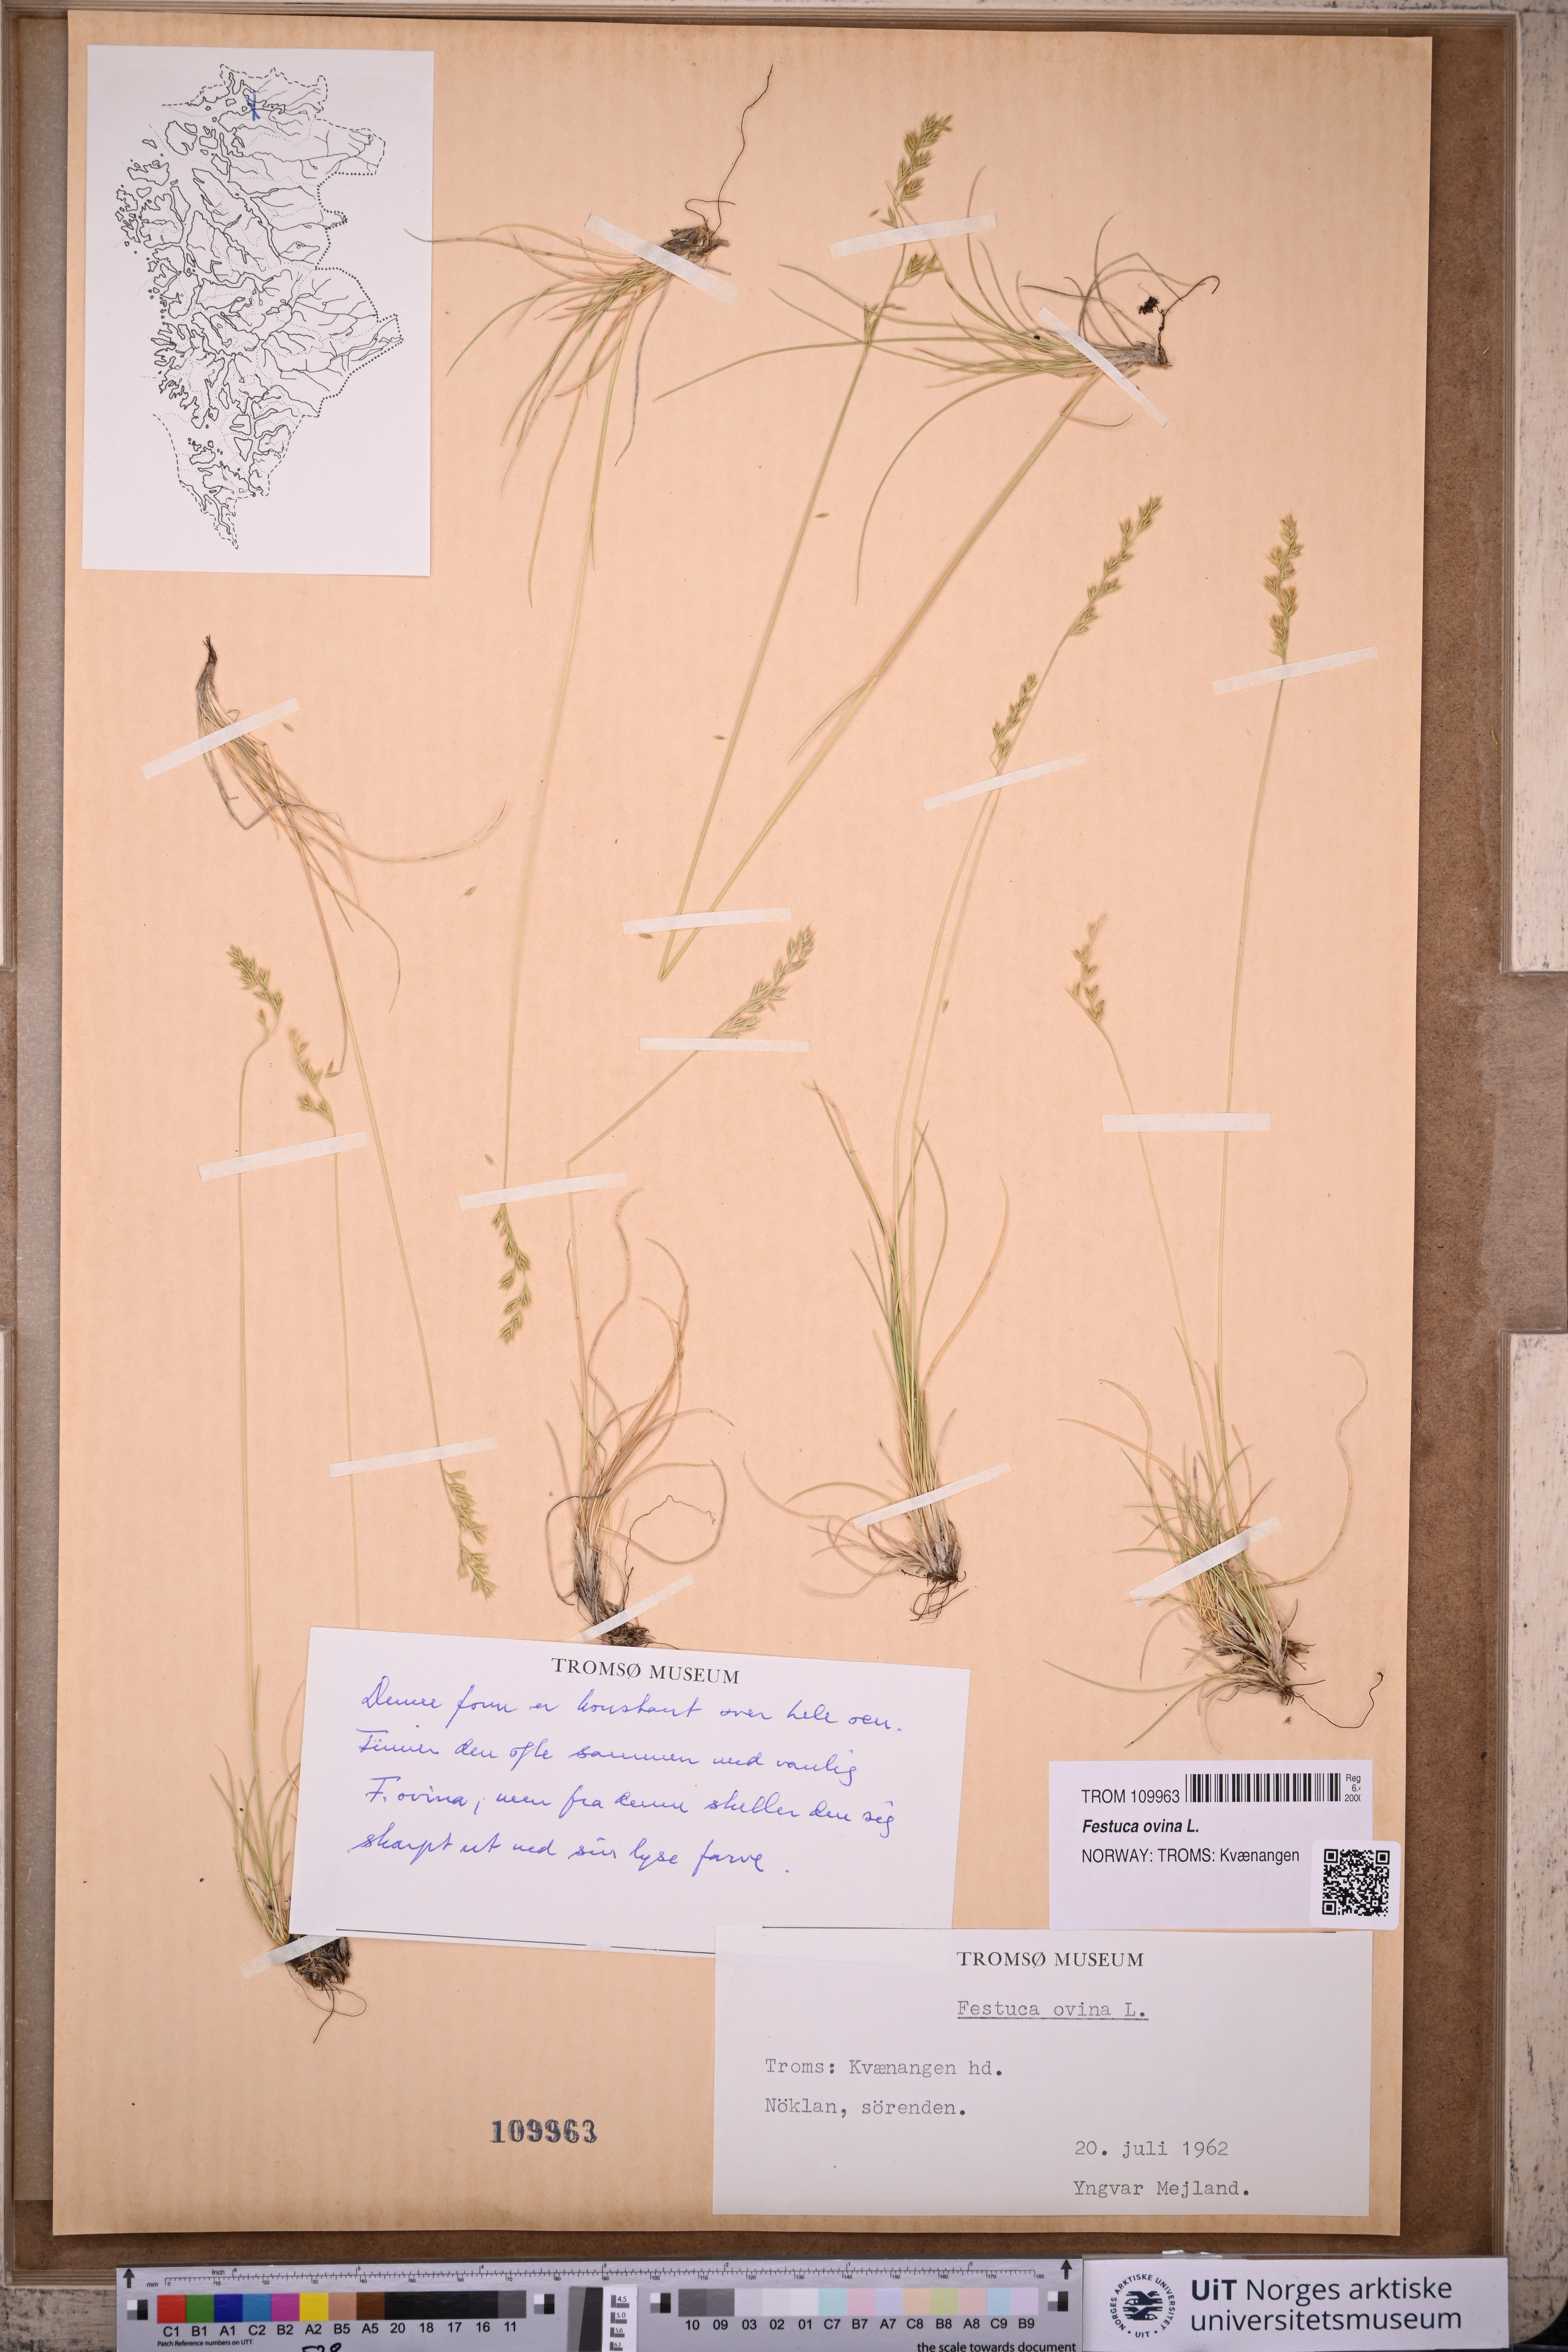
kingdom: Plantae
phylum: Tracheophyta
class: Liliopsida
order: Poales
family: Poaceae
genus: Festuca
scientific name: Festuca ovina
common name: Sheep fescue
